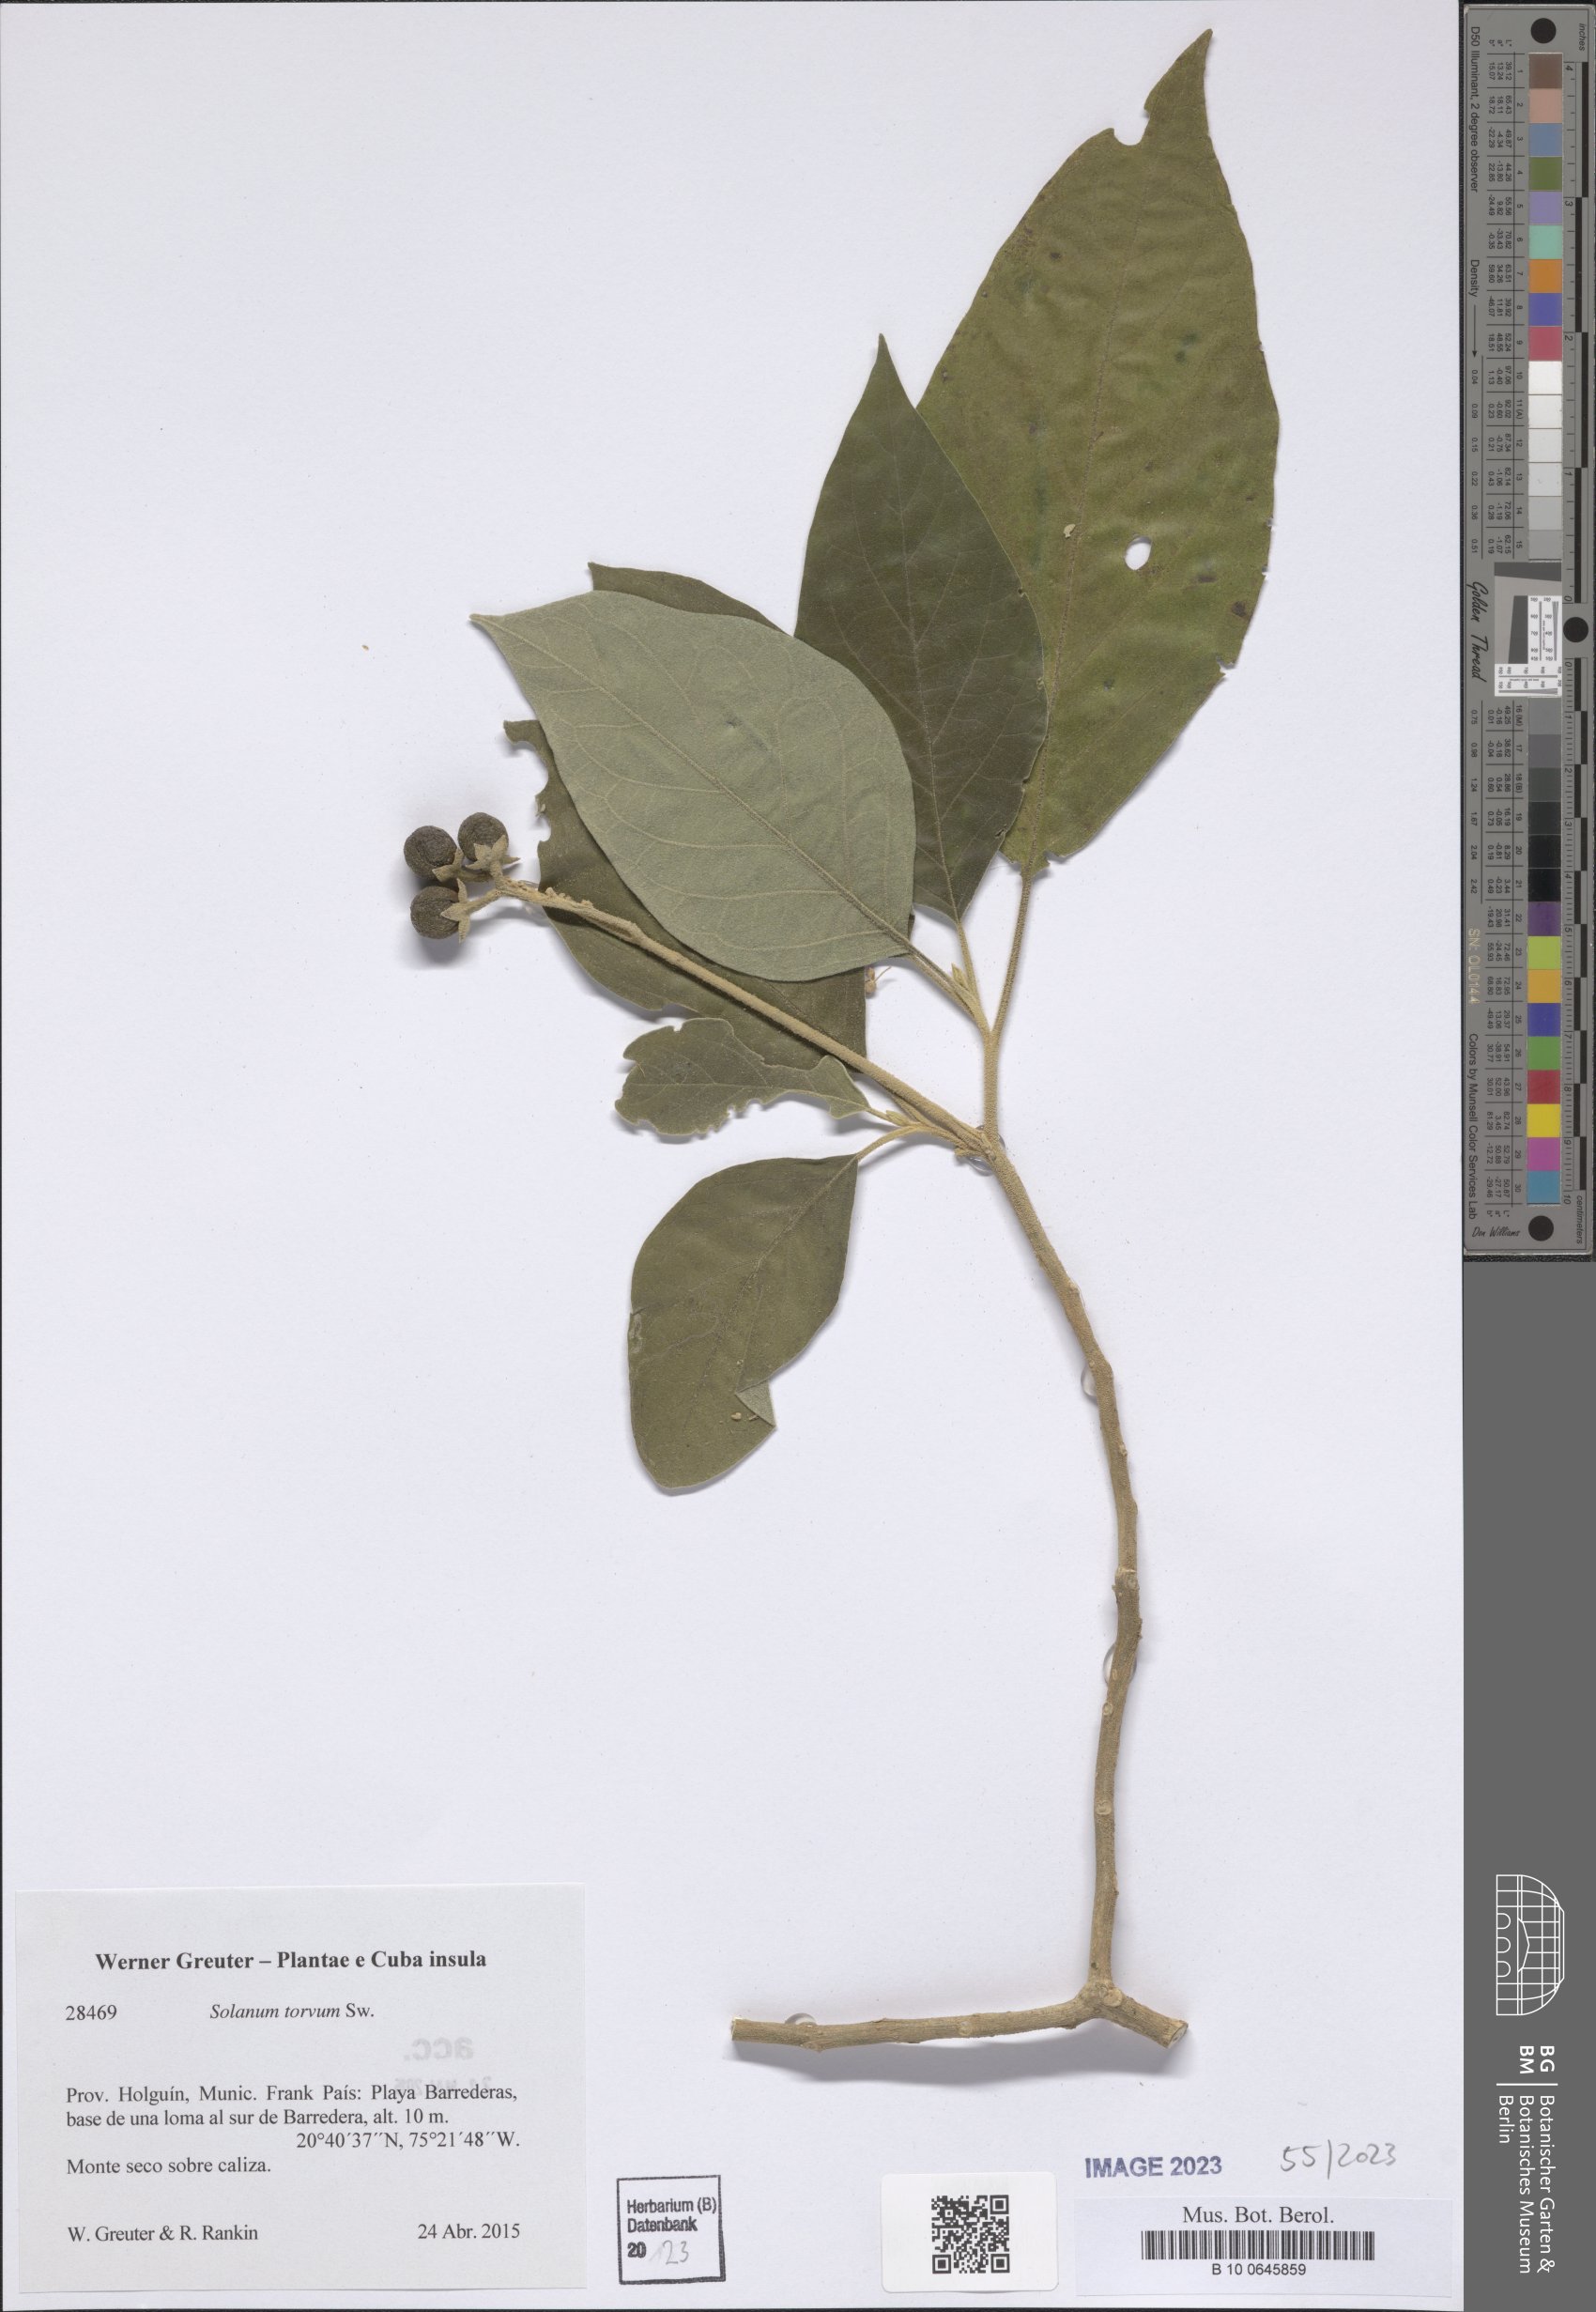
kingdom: Plantae
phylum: Tracheophyta
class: Magnoliopsida
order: Solanales
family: Solanaceae
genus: Solanum
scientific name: Solanum torvum
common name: Turkey berry
